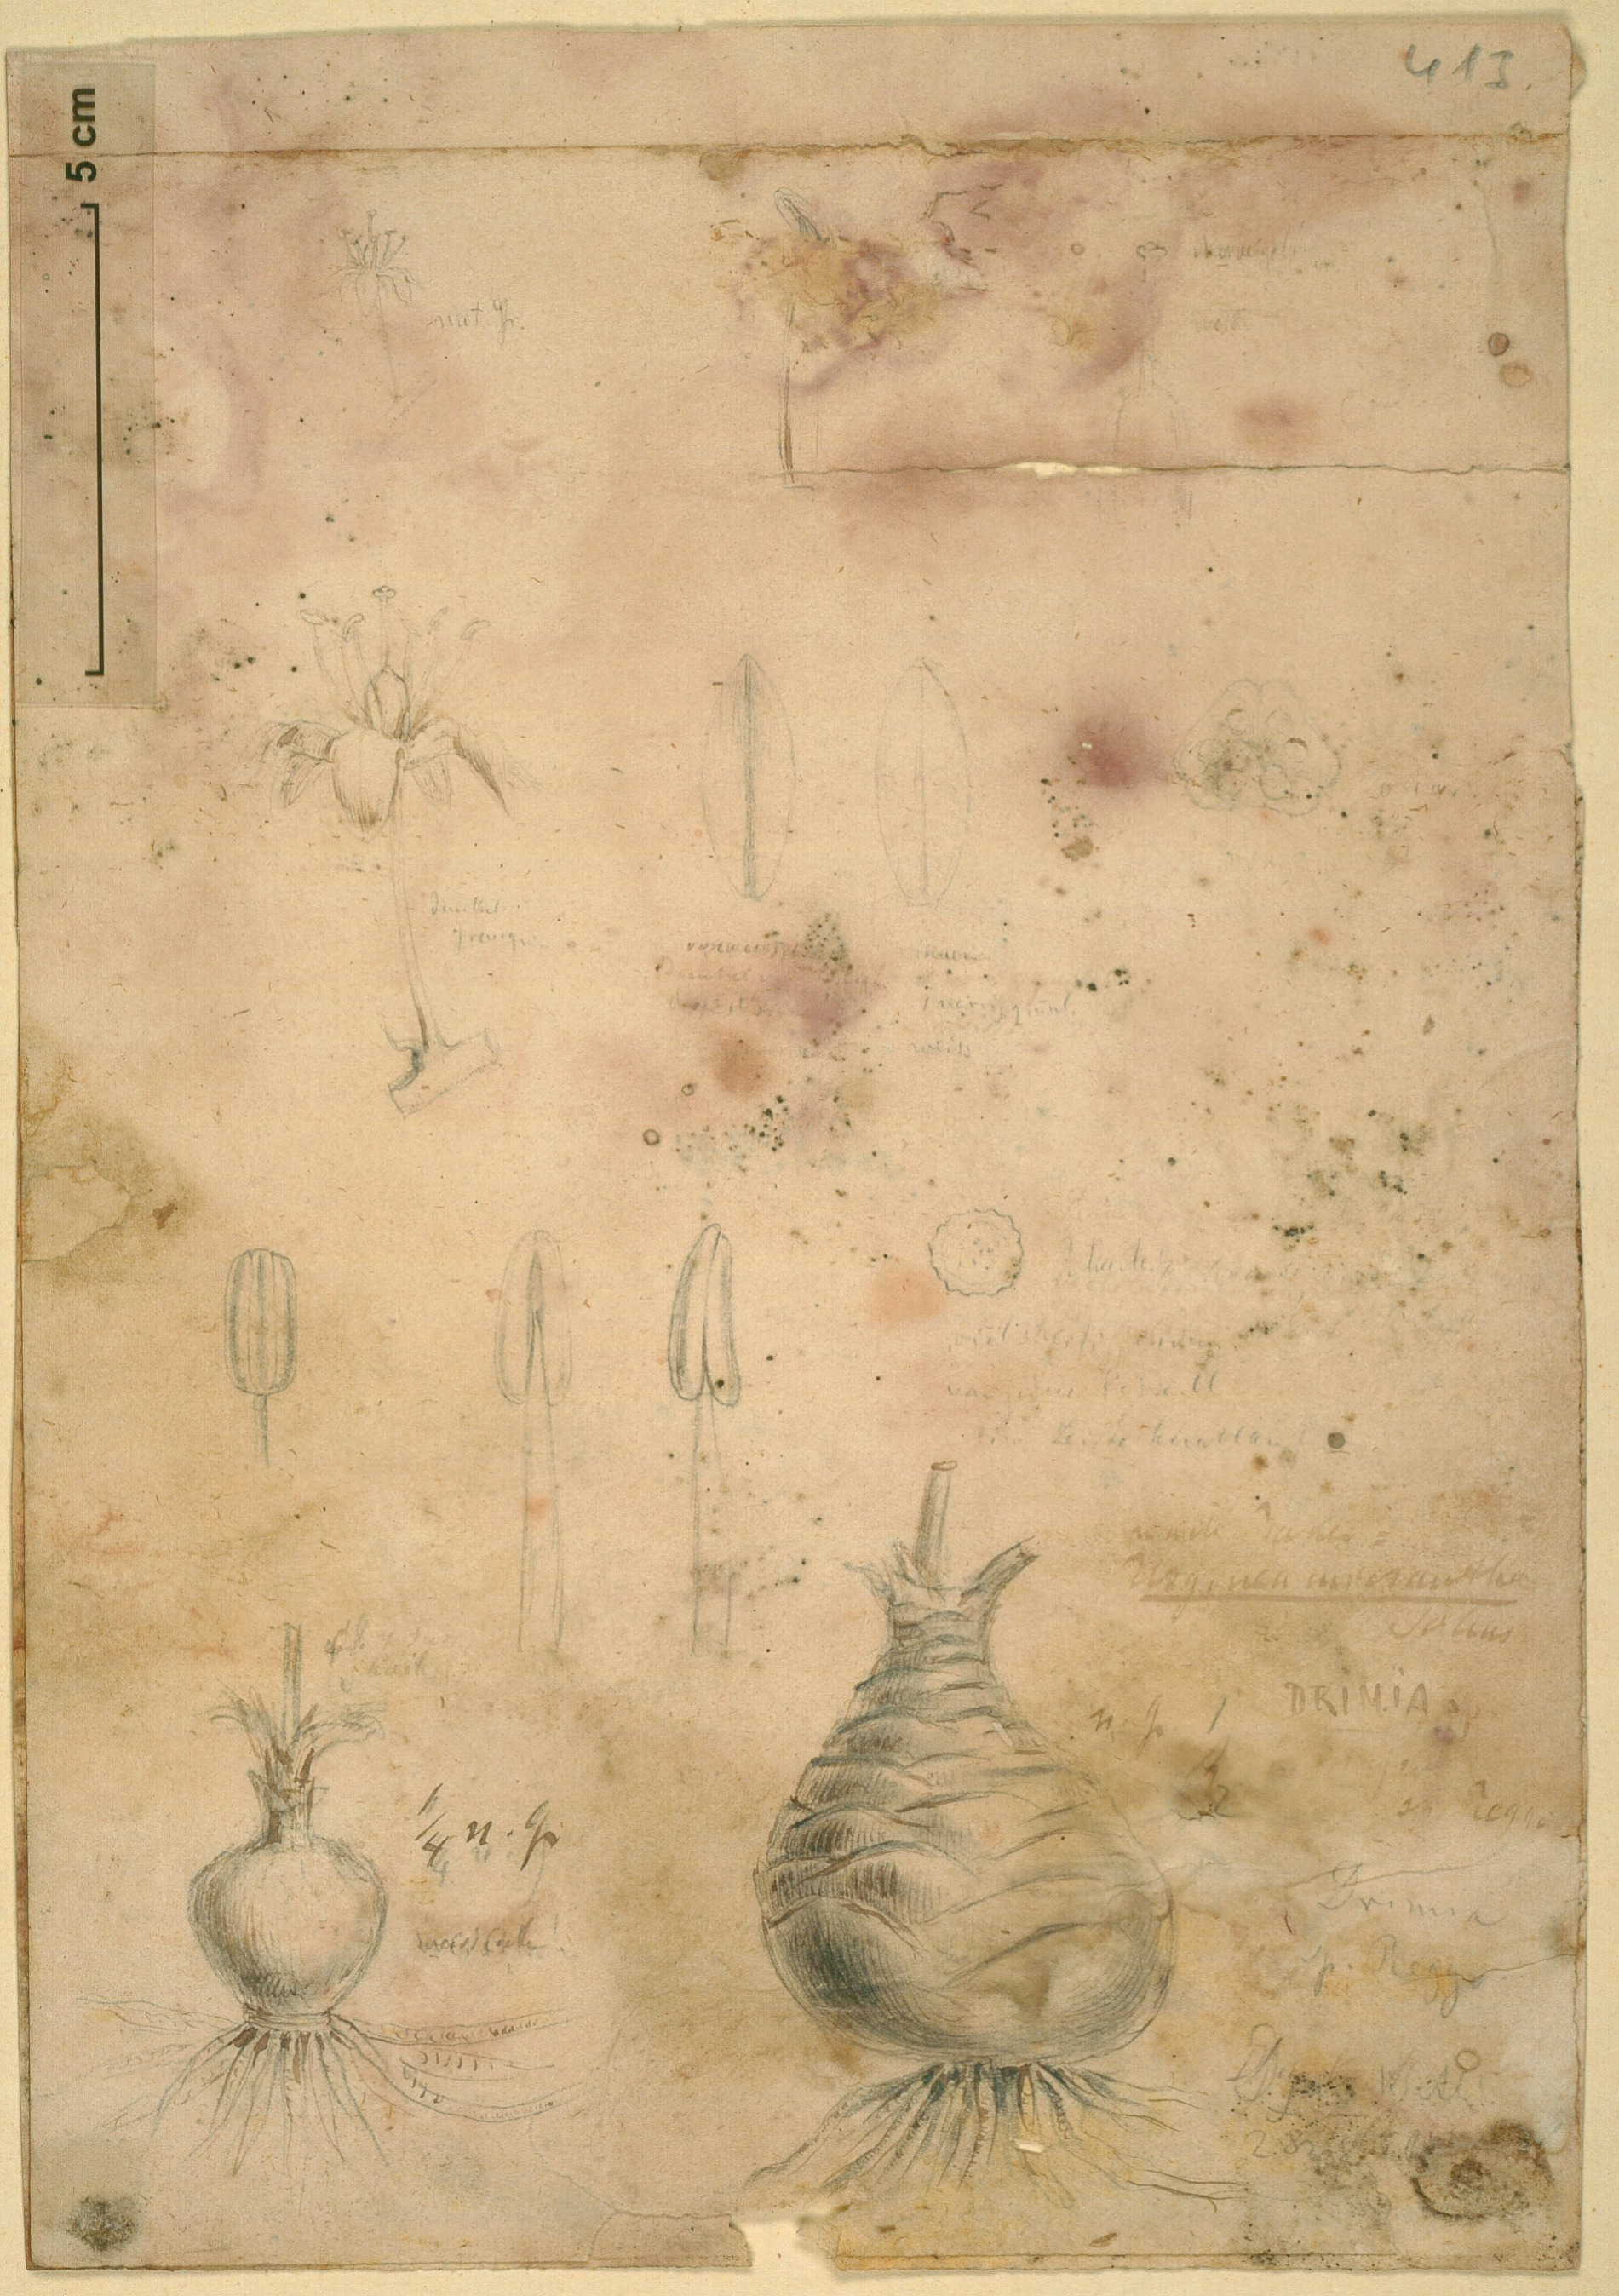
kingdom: Plantae
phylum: Tracheophyta
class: Liliopsida
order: Asparagales
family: Asparagaceae
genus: Drimia
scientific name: Drimia altissima
